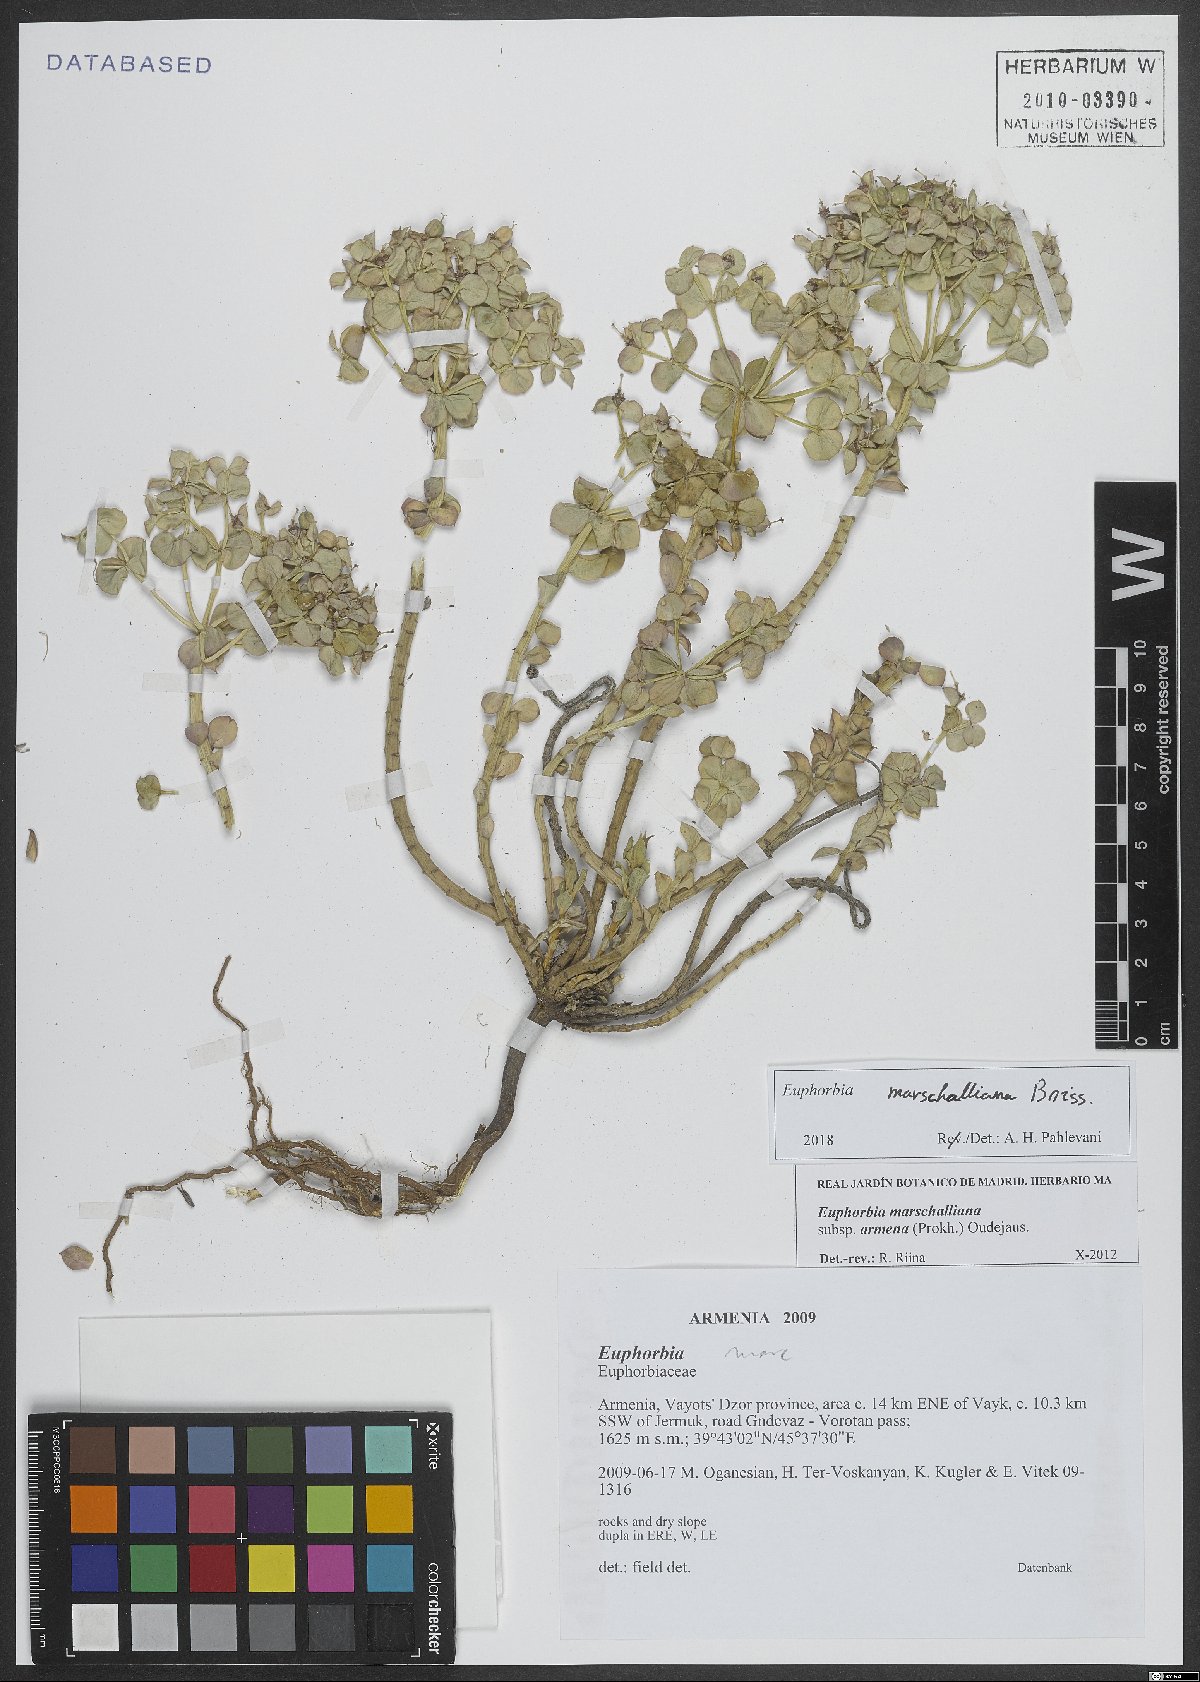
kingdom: Plantae
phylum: Tracheophyta
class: Magnoliopsida
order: Malpighiales
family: Euphorbiaceae
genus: Euphorbia
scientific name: Euphorbia marschalliana
